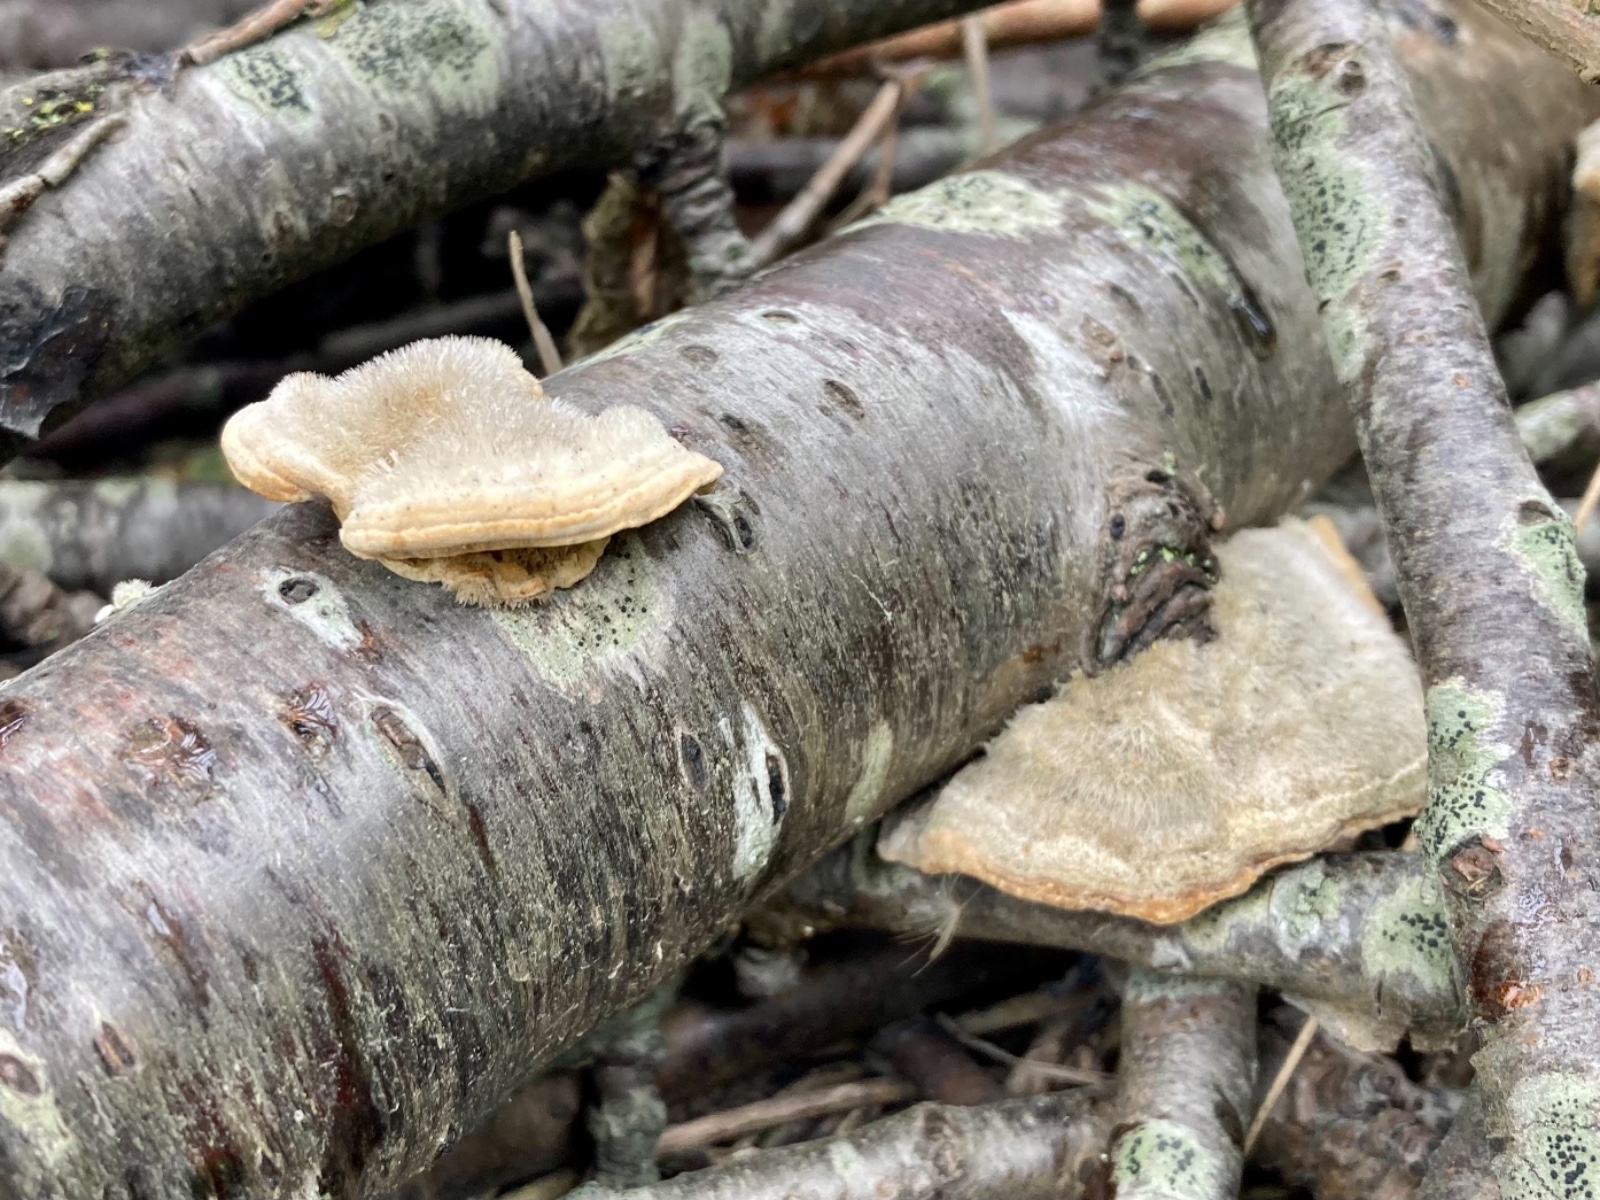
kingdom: Fungi
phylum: Basidiomycota
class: Agaricomycetes
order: Polyporales
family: Polyporaceae
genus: Trametes
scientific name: Trametes hirsuta
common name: håret læderporesvamp
